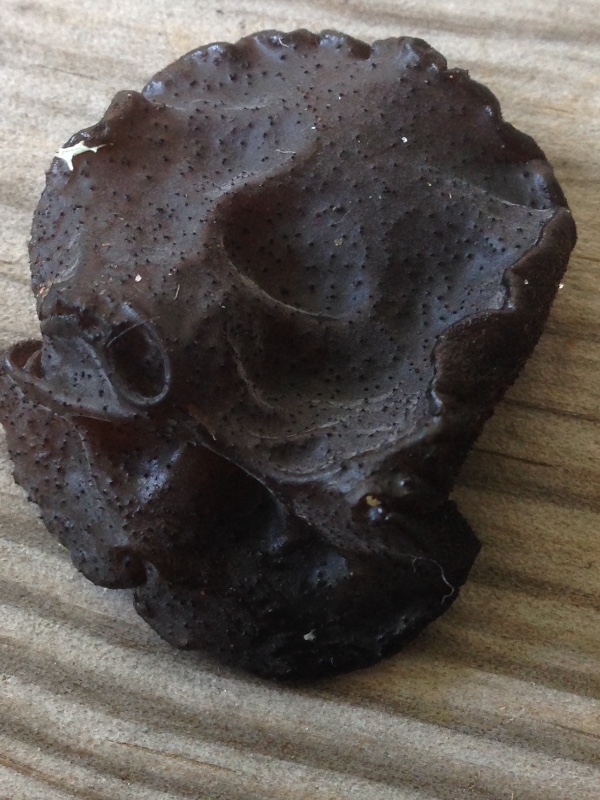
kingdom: Fungi
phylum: Basidiomycota
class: Agaricomycetes
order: Auriculariales
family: Auriculariaceae
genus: Exidia
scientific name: Exidia glandulosa
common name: ege-bævretop
